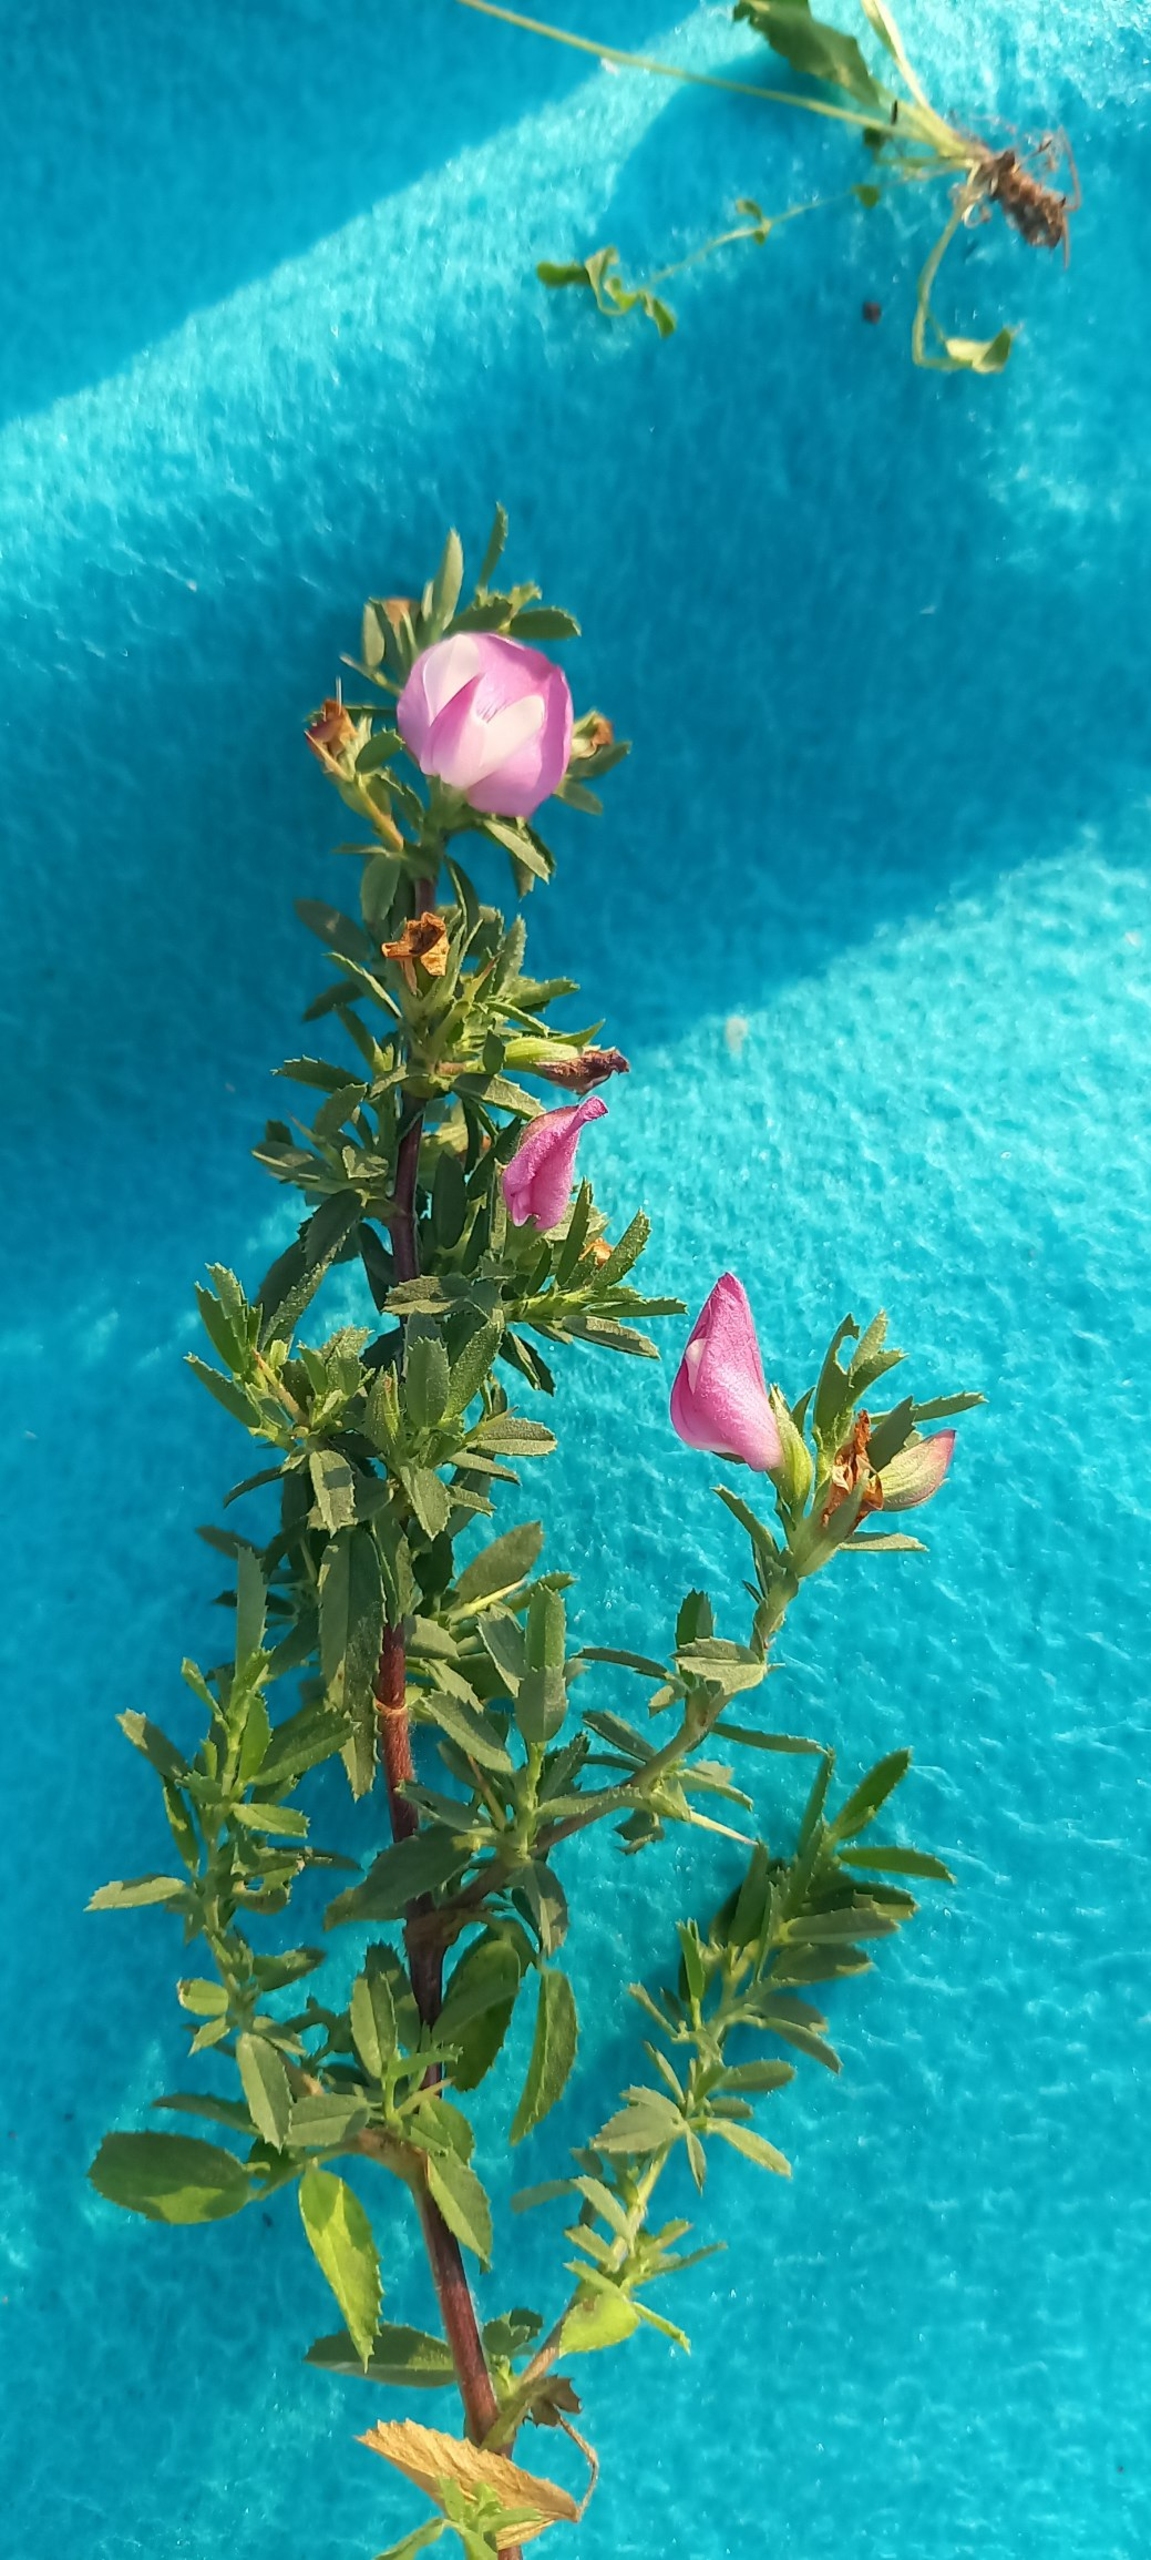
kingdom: Plantae
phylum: Tracheophyta
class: Magnoliopsida
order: Fabales
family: Fabaceae
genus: Ononis
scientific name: Ononis spinosa
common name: Krageklo
